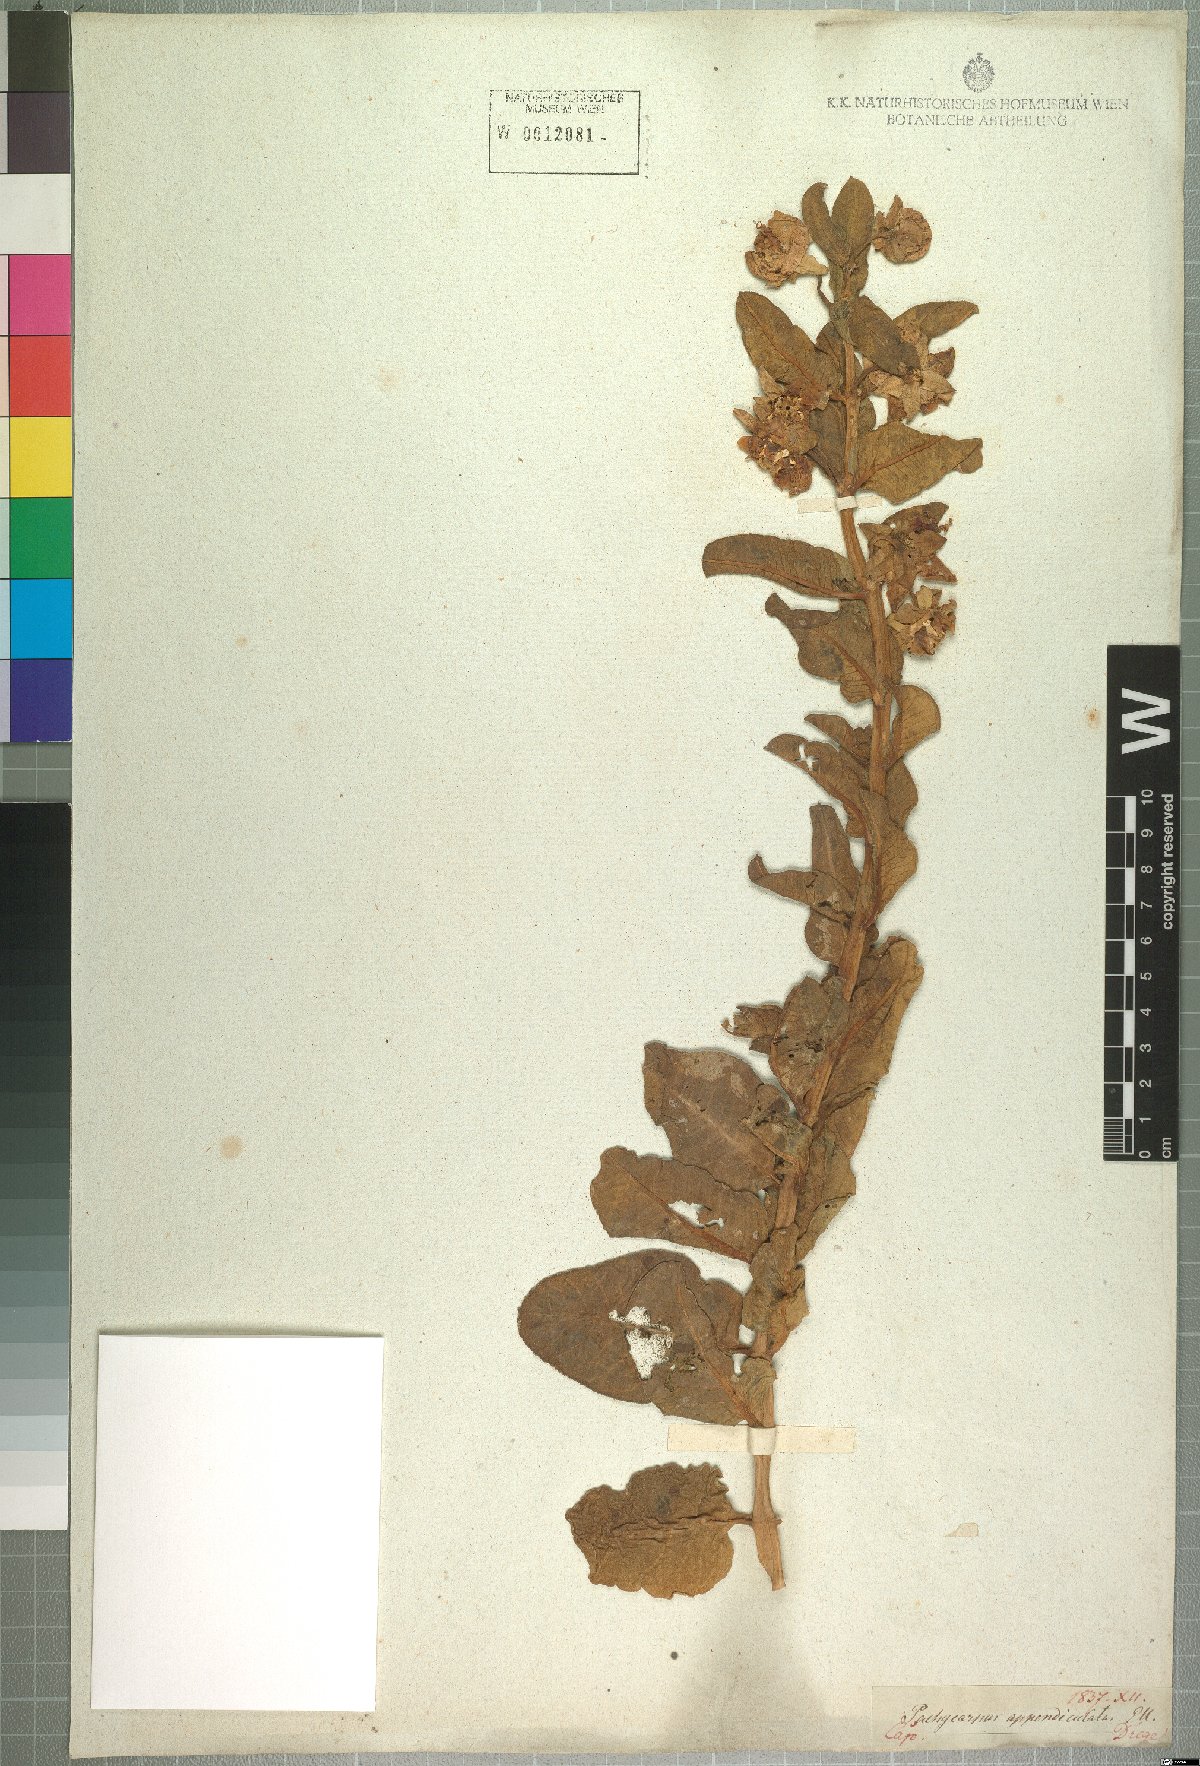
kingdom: Plantae
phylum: Tracheophyta
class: Magnoliopsida
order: Gentianales
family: Apocynaceae
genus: Pachycarpus
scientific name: Pachycarpus appendiculatus
